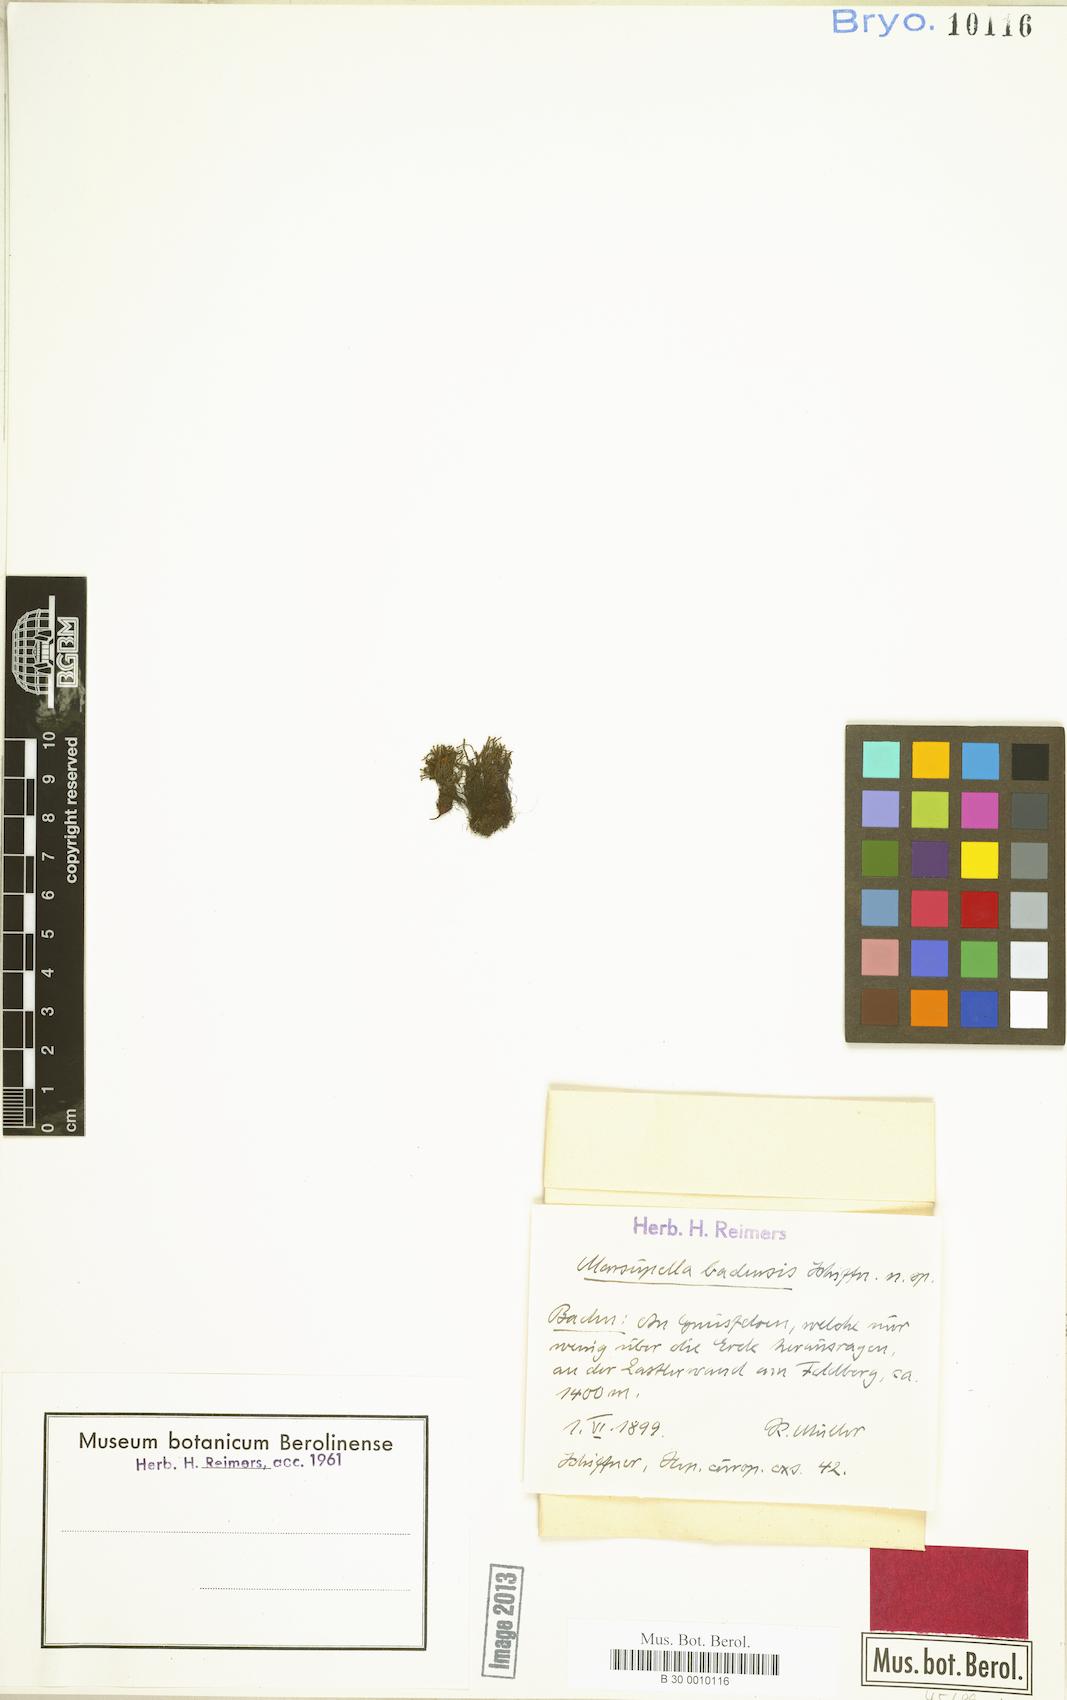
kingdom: Plantae
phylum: Marchantiophyta
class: Jungermanniopsida
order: Jungermanniales
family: Gymnomitriaceae
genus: Marsupella
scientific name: Marsupella funckii
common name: Funck's rustwort
